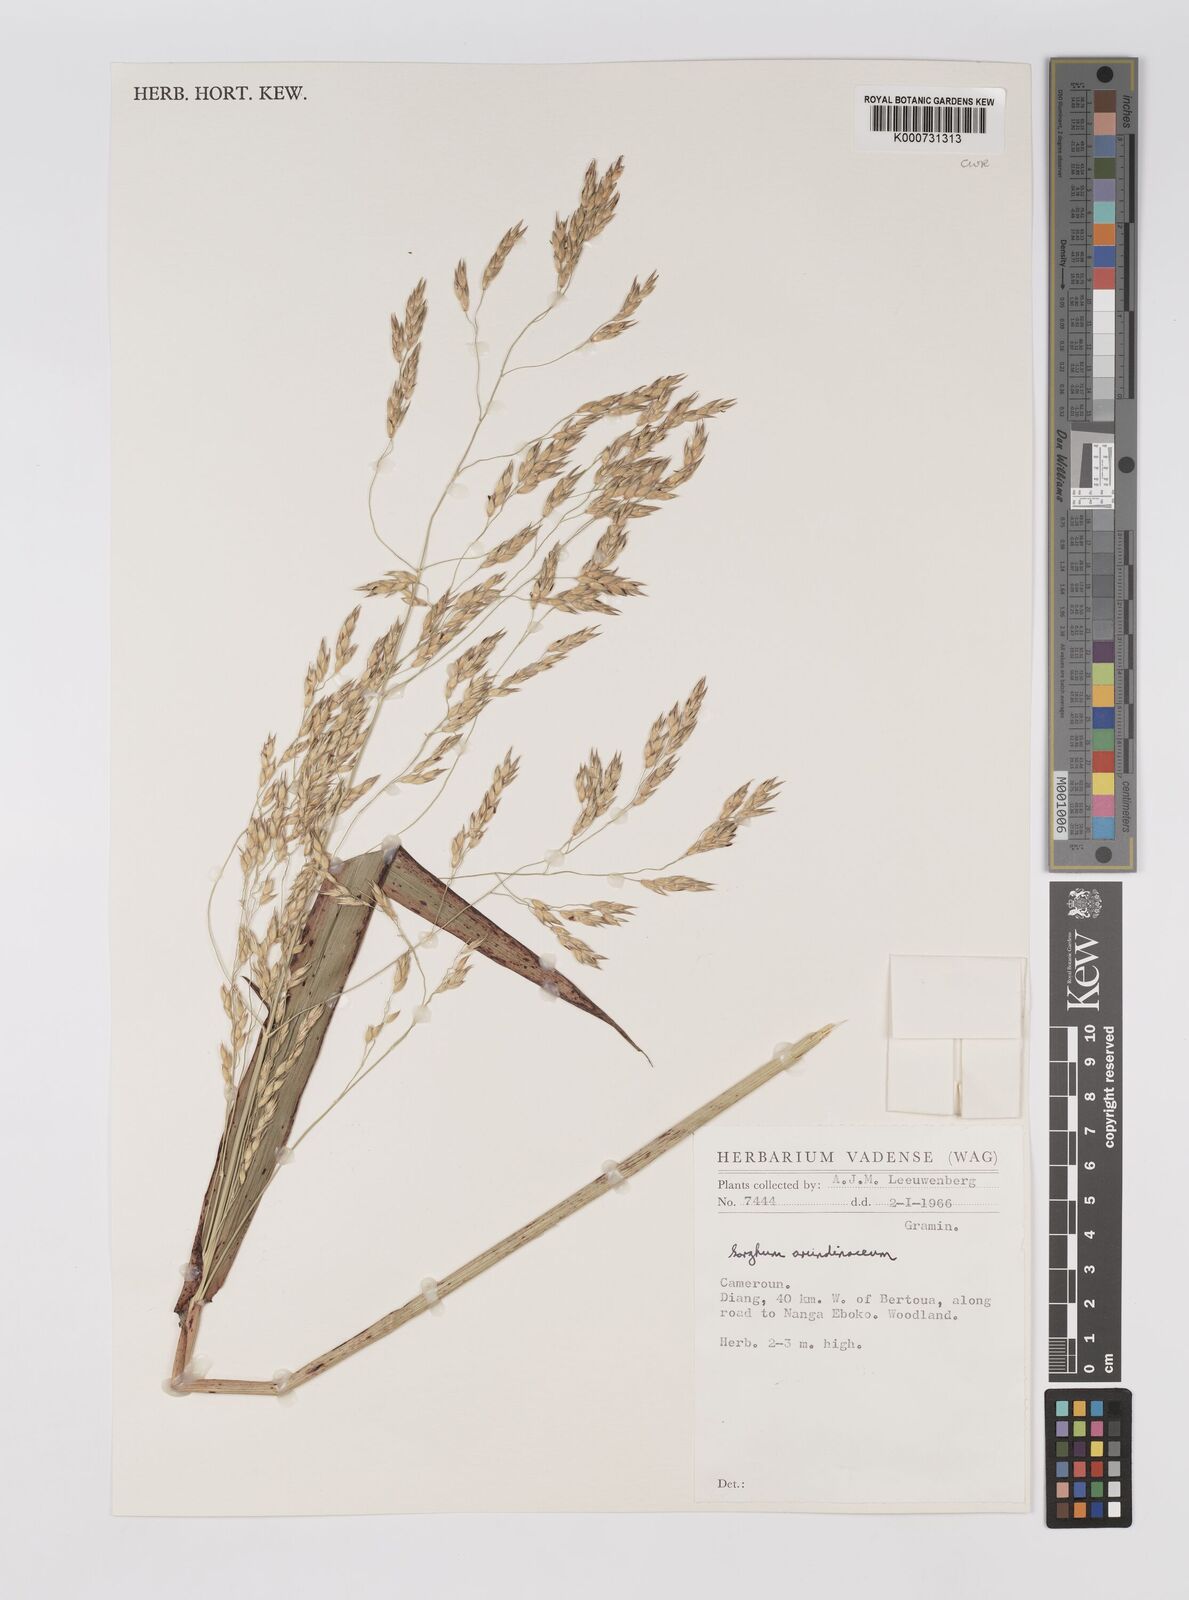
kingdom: Plantae
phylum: Tracheophyta
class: Liliopsida
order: Poales
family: Poaceae
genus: Sorghum
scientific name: Sorghum arundinaceum
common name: Sorghum
